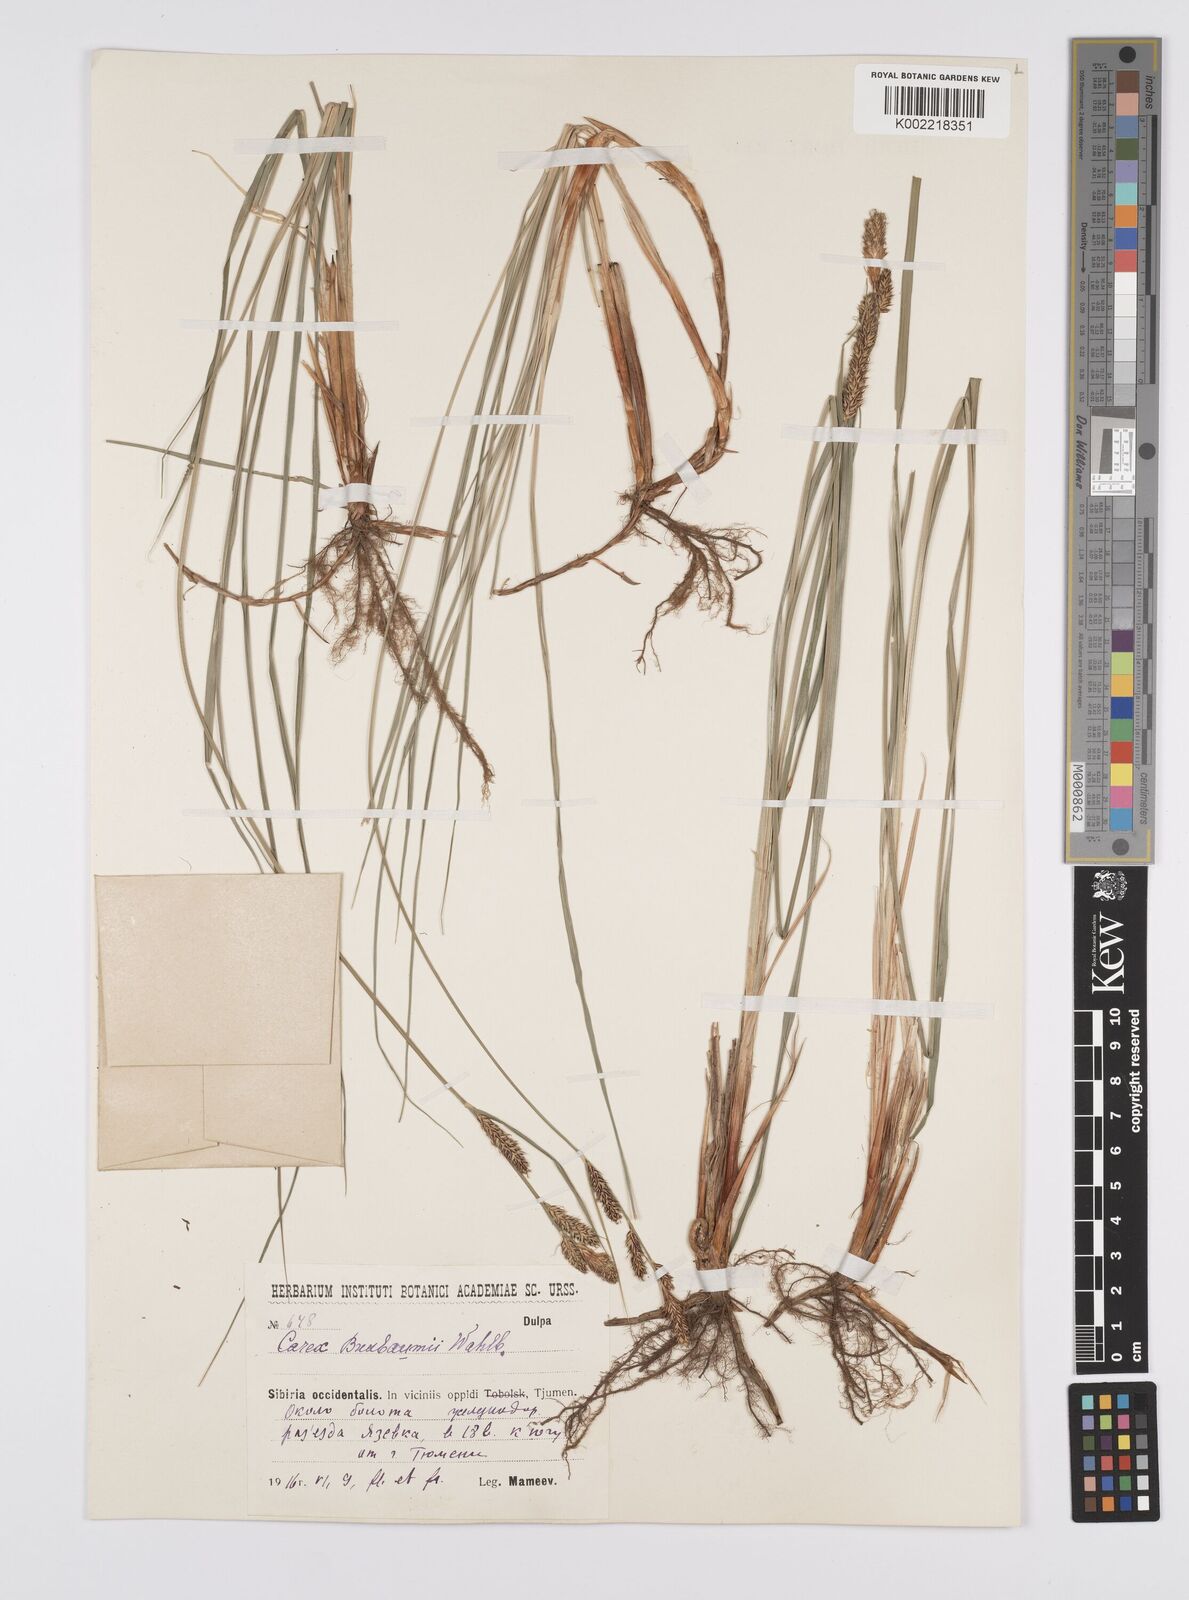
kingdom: Plantae
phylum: Tracheophyta
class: Liliopsida
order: Poales
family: Cyperaceae
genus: Carex
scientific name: Carex buxbaumii
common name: Club sedge
